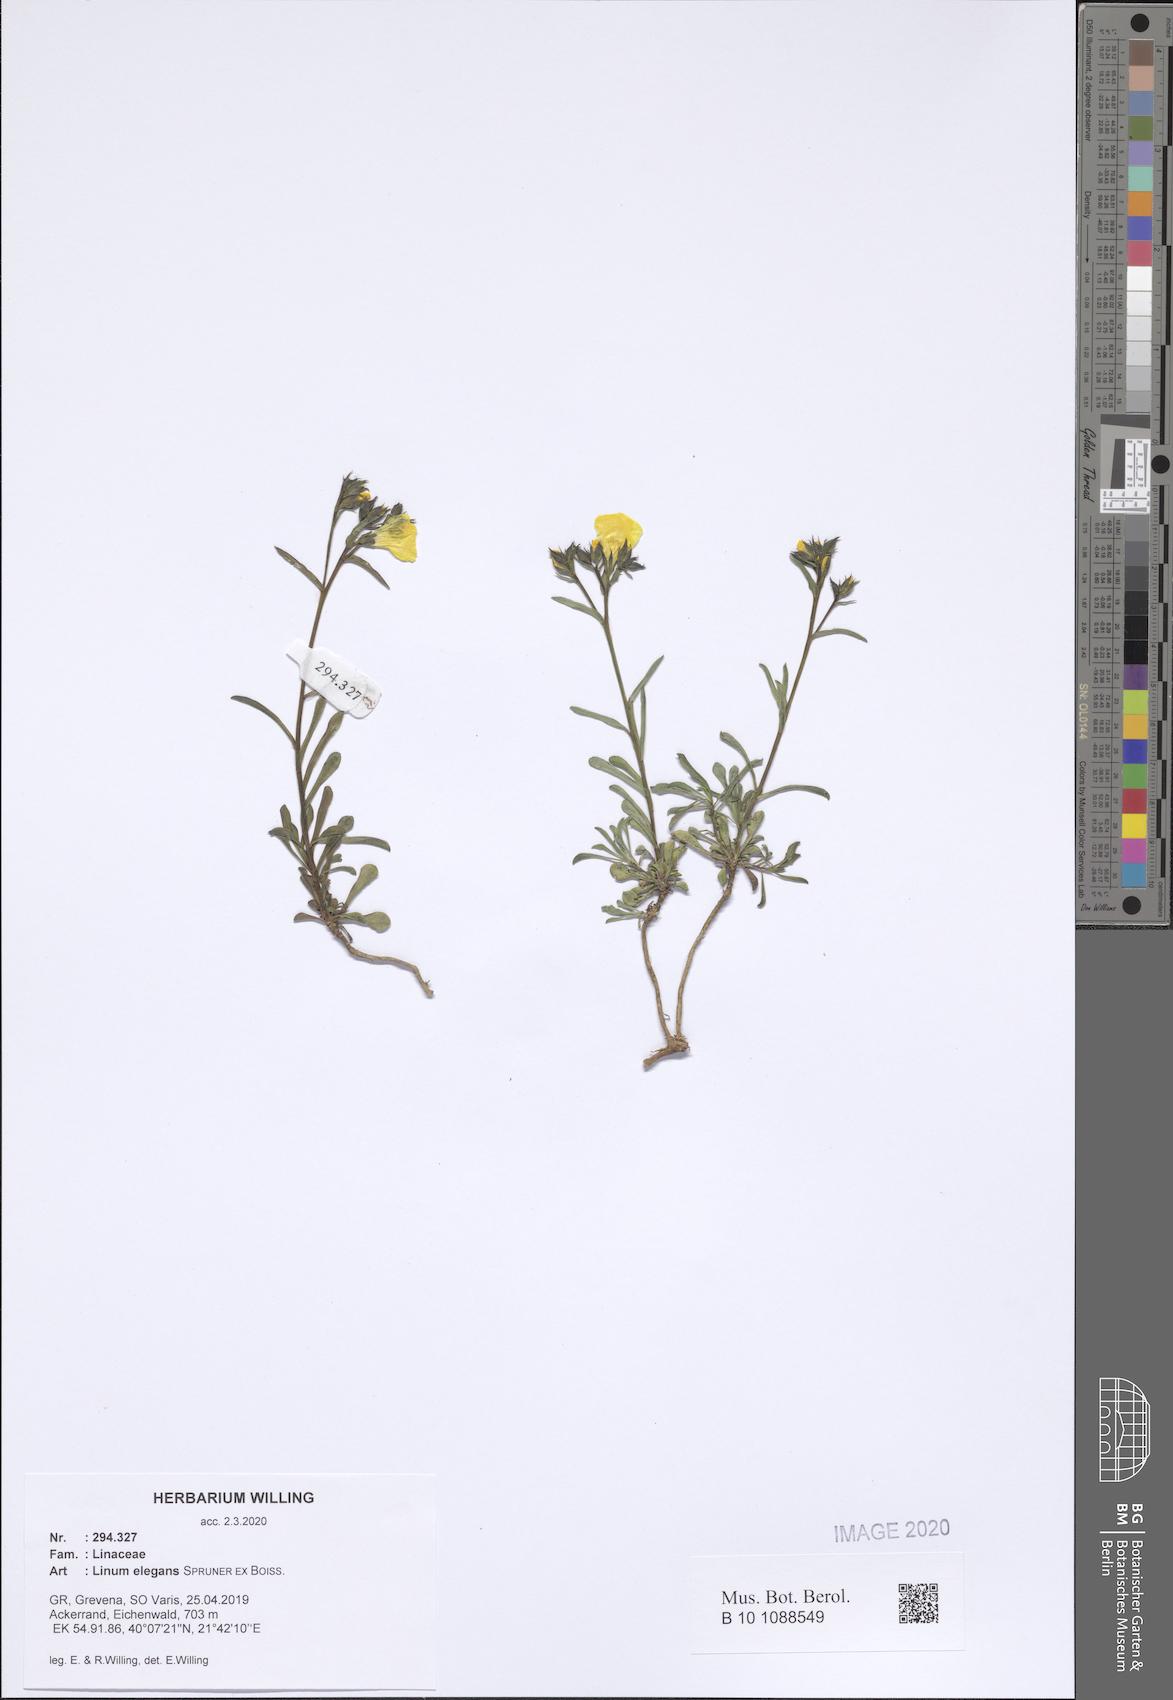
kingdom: Plantae
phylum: Tracheophyta
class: Magnoliopsida
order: Malpighiales
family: Linaceae
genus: Linum
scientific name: Linum elegans
